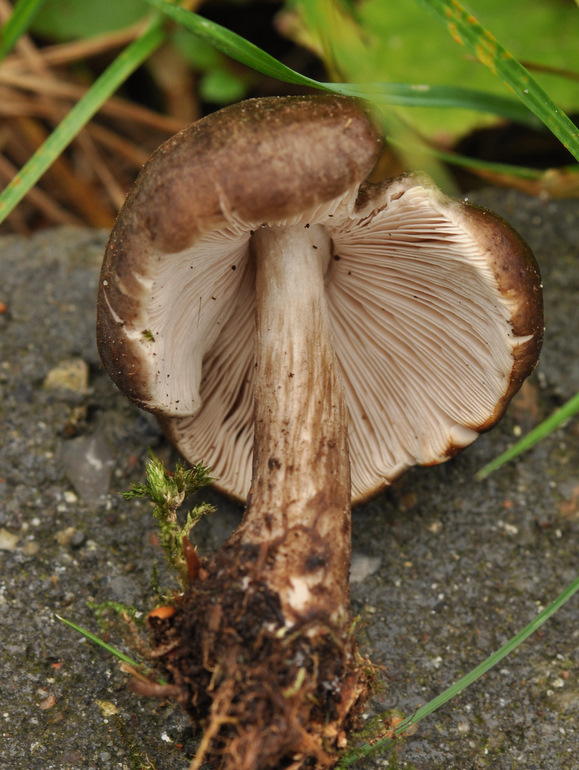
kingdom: Fungi
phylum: Basidiomycota
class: Agaricomycetes
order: Agaricales
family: Pluteaceae
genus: Pluteus
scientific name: Pluteus cervinus
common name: sodfarvet skærmhat
